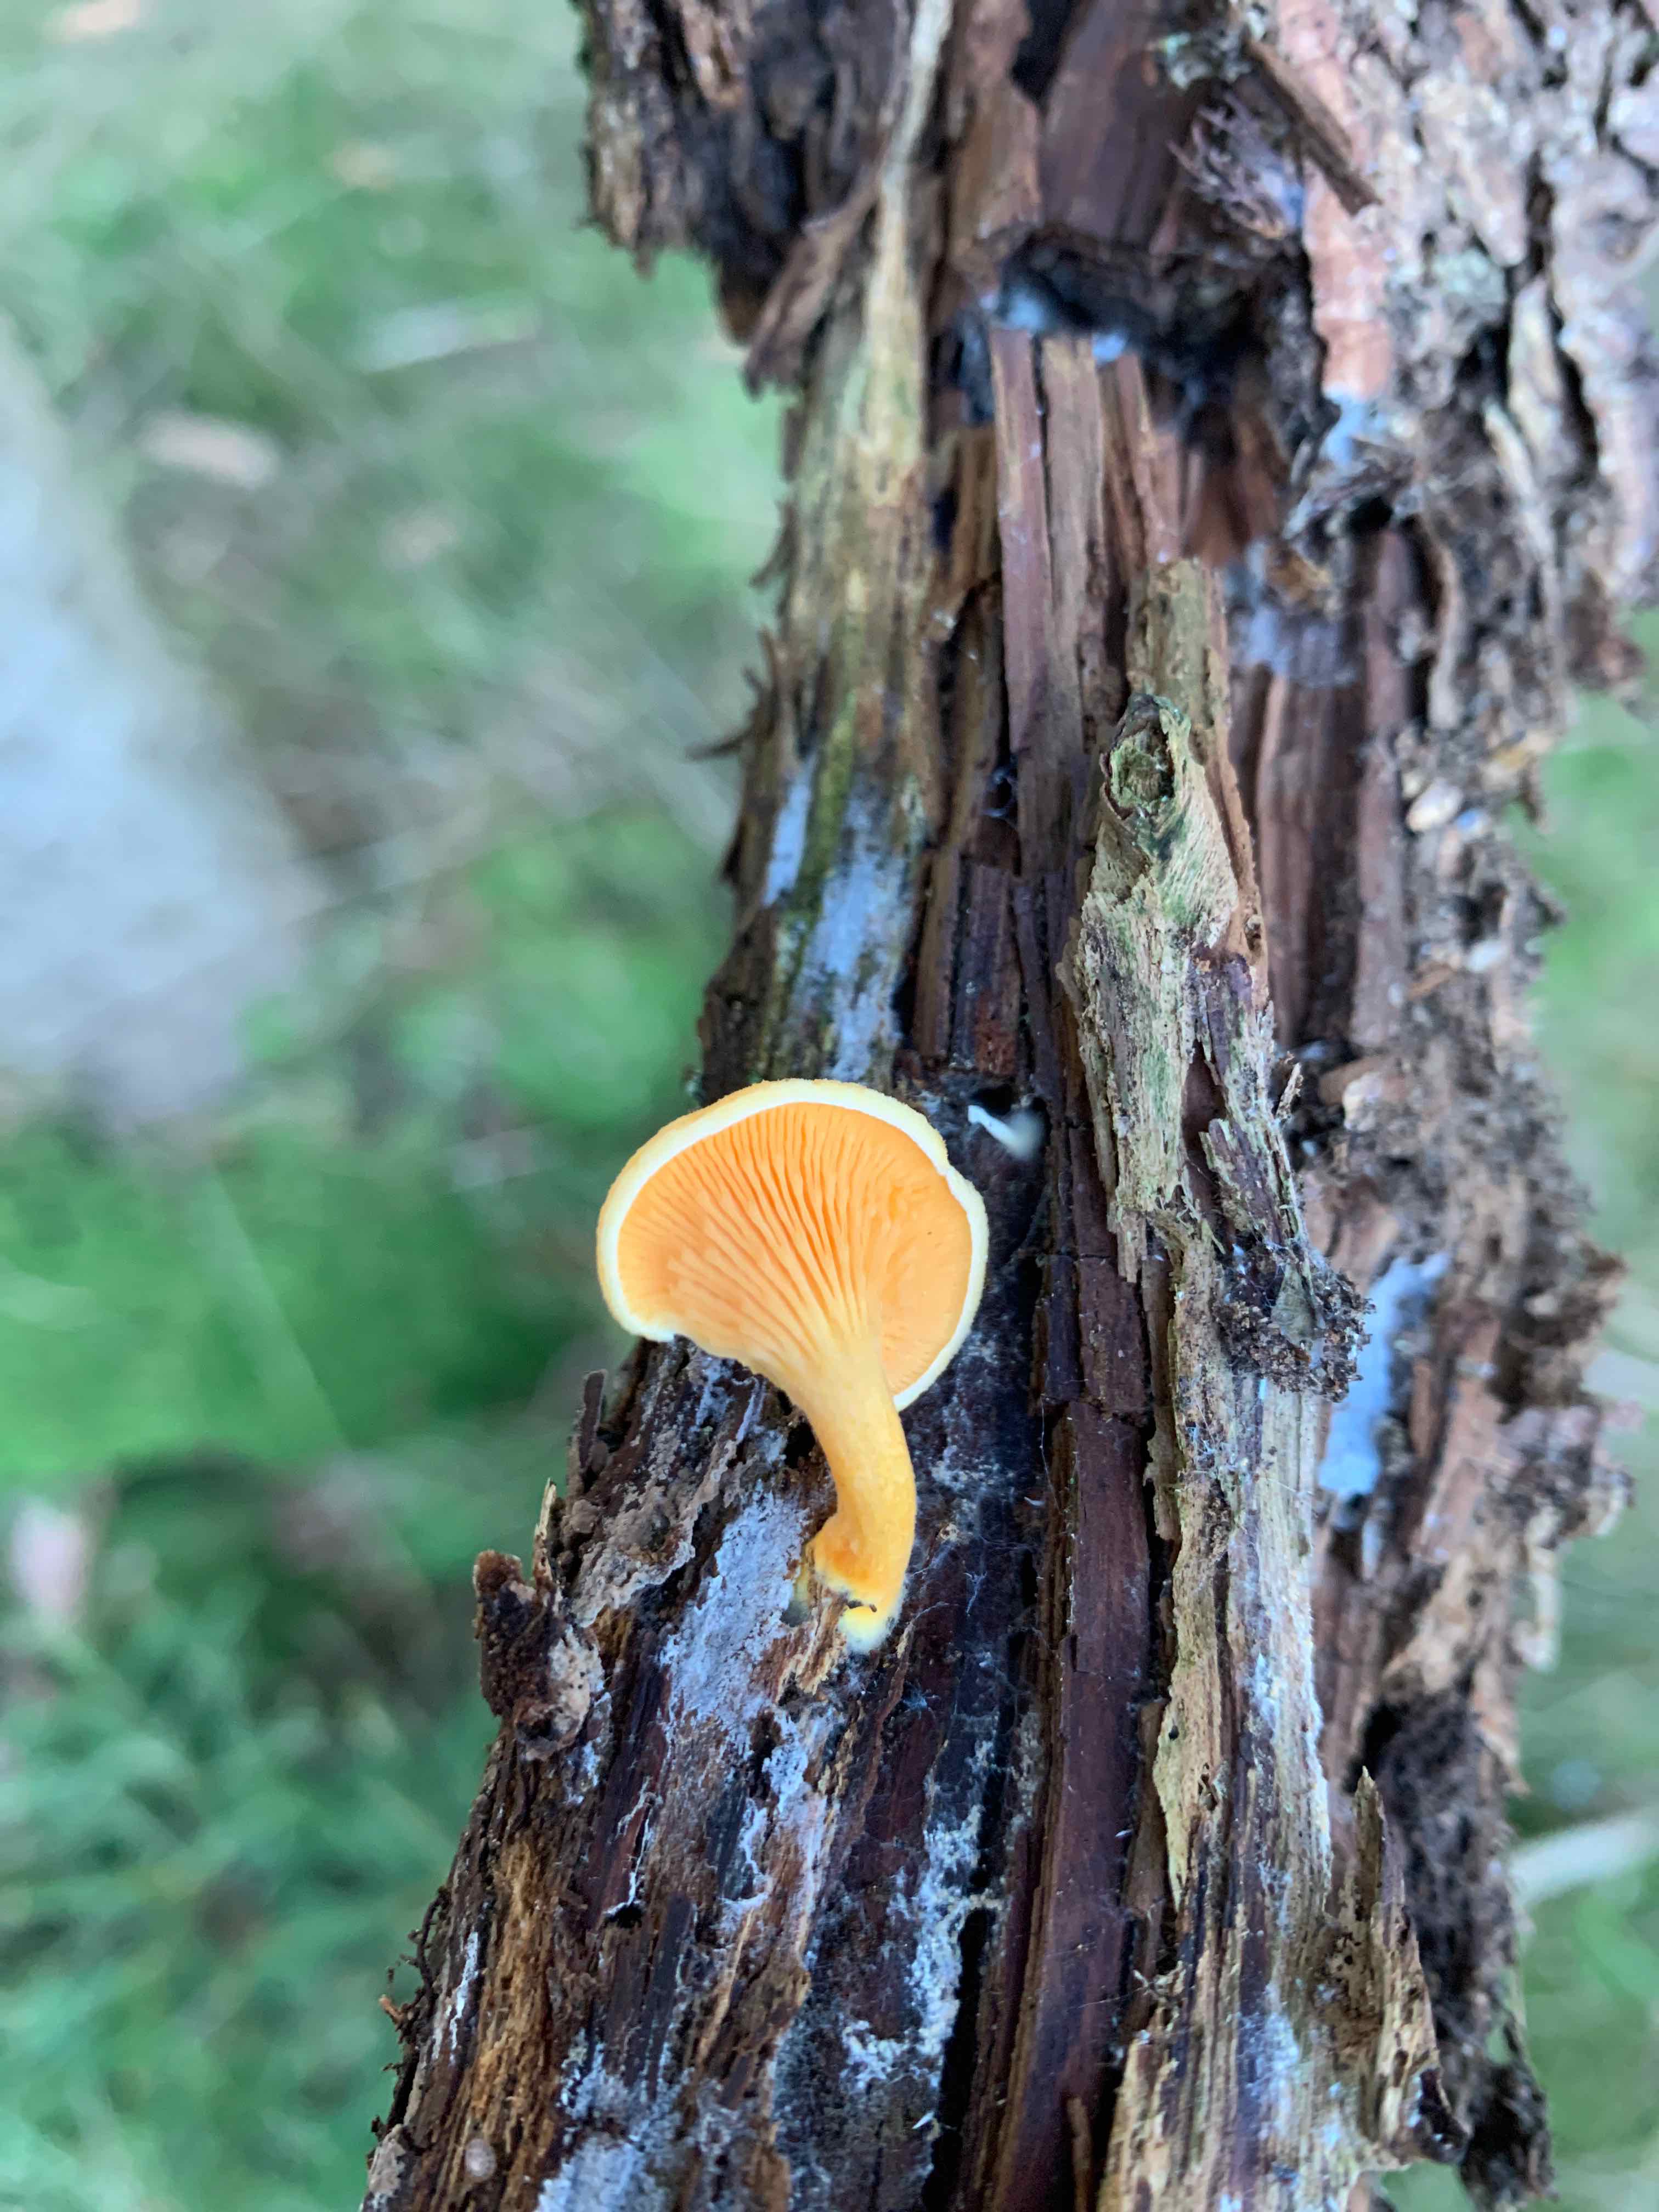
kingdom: Fungi
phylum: Basidiomycota
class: Agaricomycetes
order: Boletales
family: Hygrophoropsidaceae
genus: Hygrophoropsis
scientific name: Hygrophoropsis aurantiaca
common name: almindelig orangekantarel
